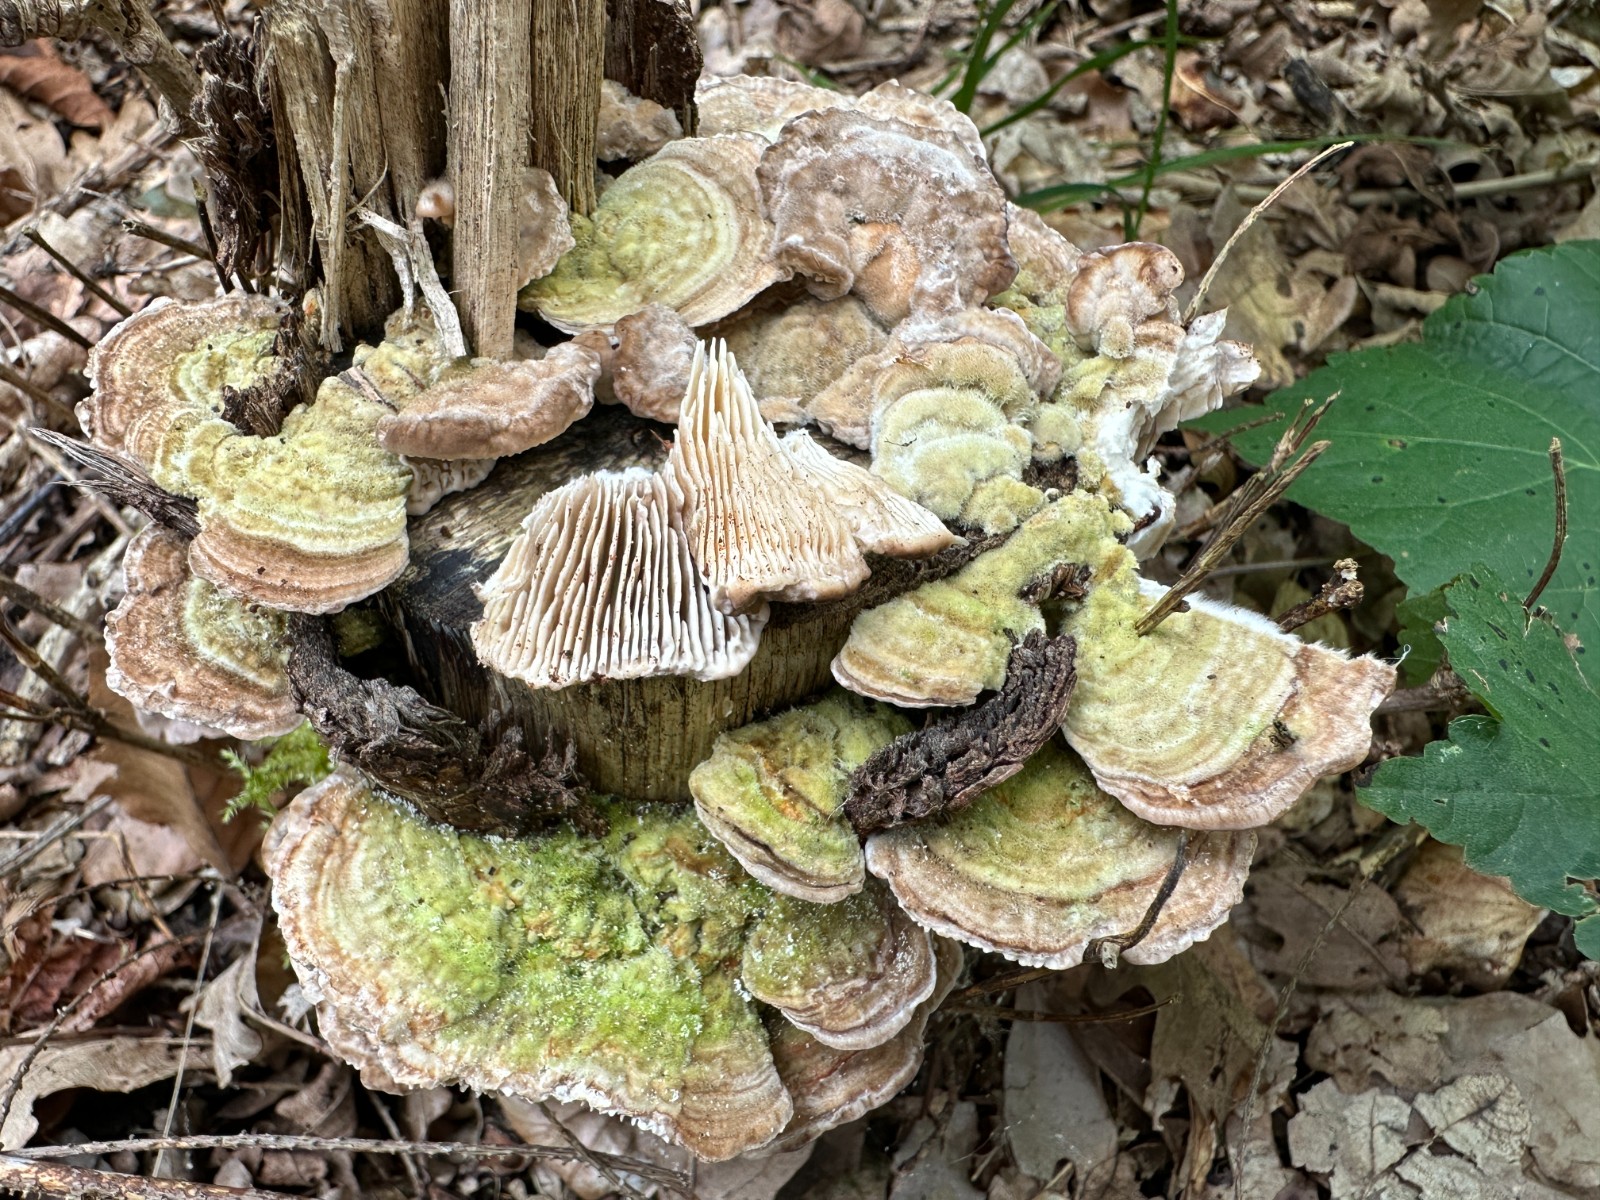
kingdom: Fungi
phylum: Basidiomycota
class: Agaricomycetes
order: Polyporales
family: Polyporaceae
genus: Lenzites
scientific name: Lenzites betulinus
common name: birke-læderporesvamp
